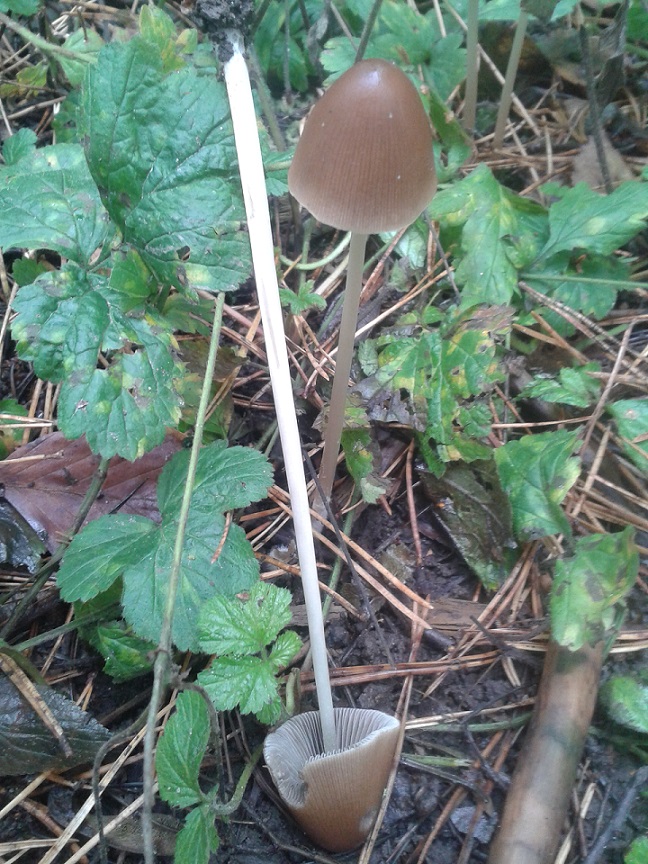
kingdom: Fungi
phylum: Basidiomycota
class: Agaricomycetes
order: Agaricales
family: Psathyrellaceae
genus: Parasola
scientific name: Parasola conopilea
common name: kegle-hjulhat
